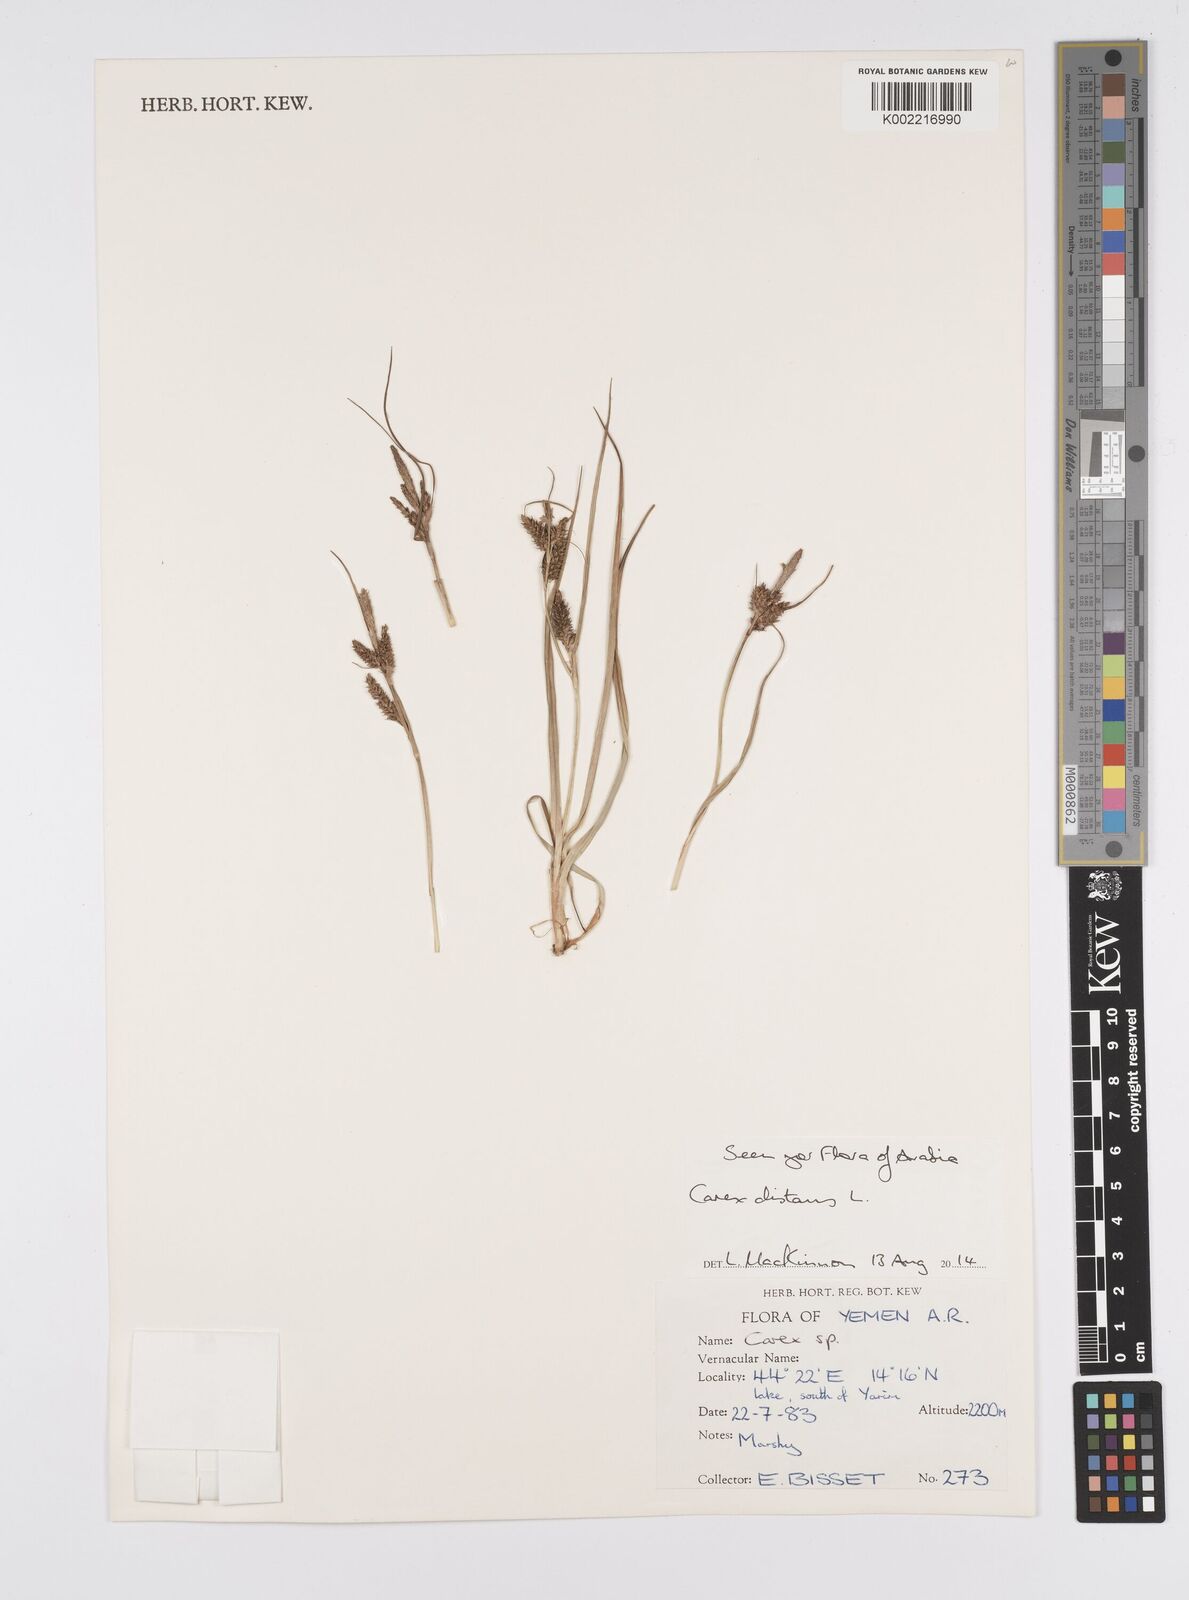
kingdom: Plantae
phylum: Tracheophyta
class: Liliopsida
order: Poales
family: Cyperaceae
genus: Carex
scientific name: Carex distans
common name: Distant sedge
